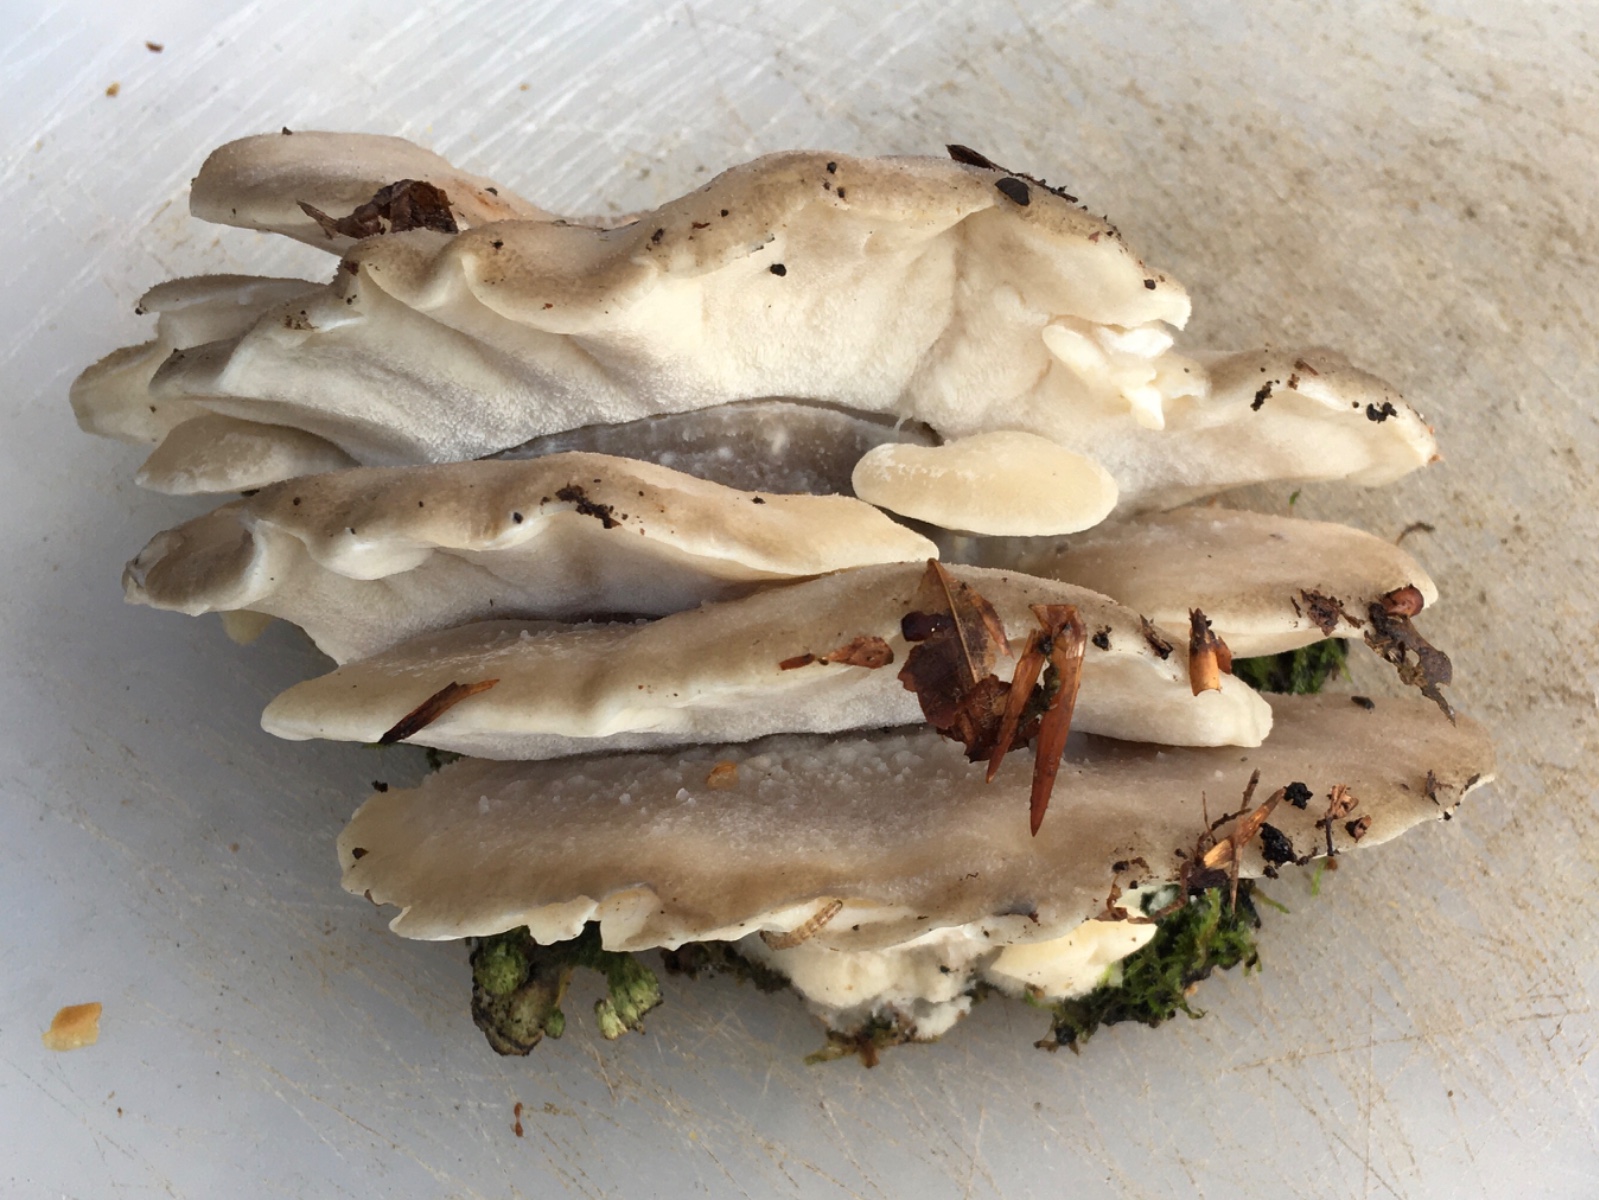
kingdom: Fungi
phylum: Basidiomycota
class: Agaricomycetes
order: Polyporales
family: Dacryobolaceae
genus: Postia
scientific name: Postia tephroleuca
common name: grålig kødporesvamp
